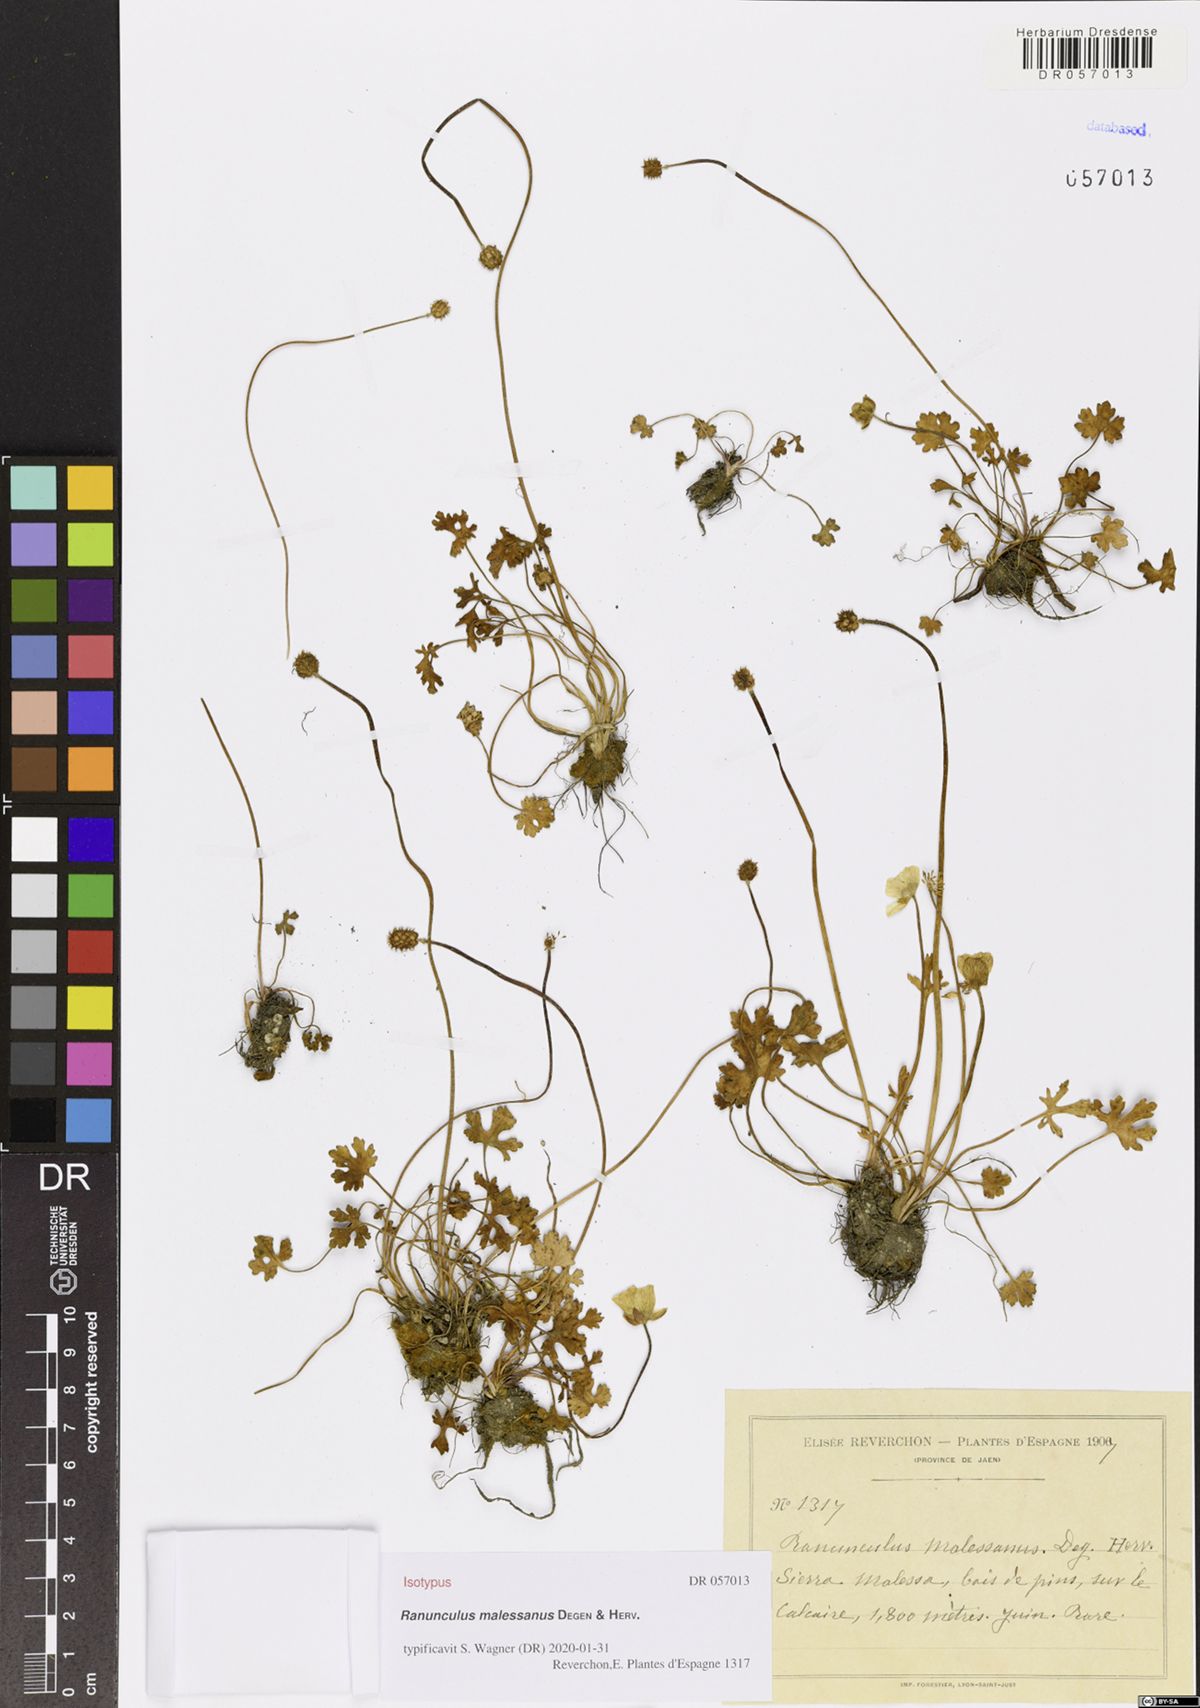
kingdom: Plantae
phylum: Tracheophyta
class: Magnoliopsida
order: Ranunculales
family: Ranunculaceae
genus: Ranunculus
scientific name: Ranunculus malessanus
